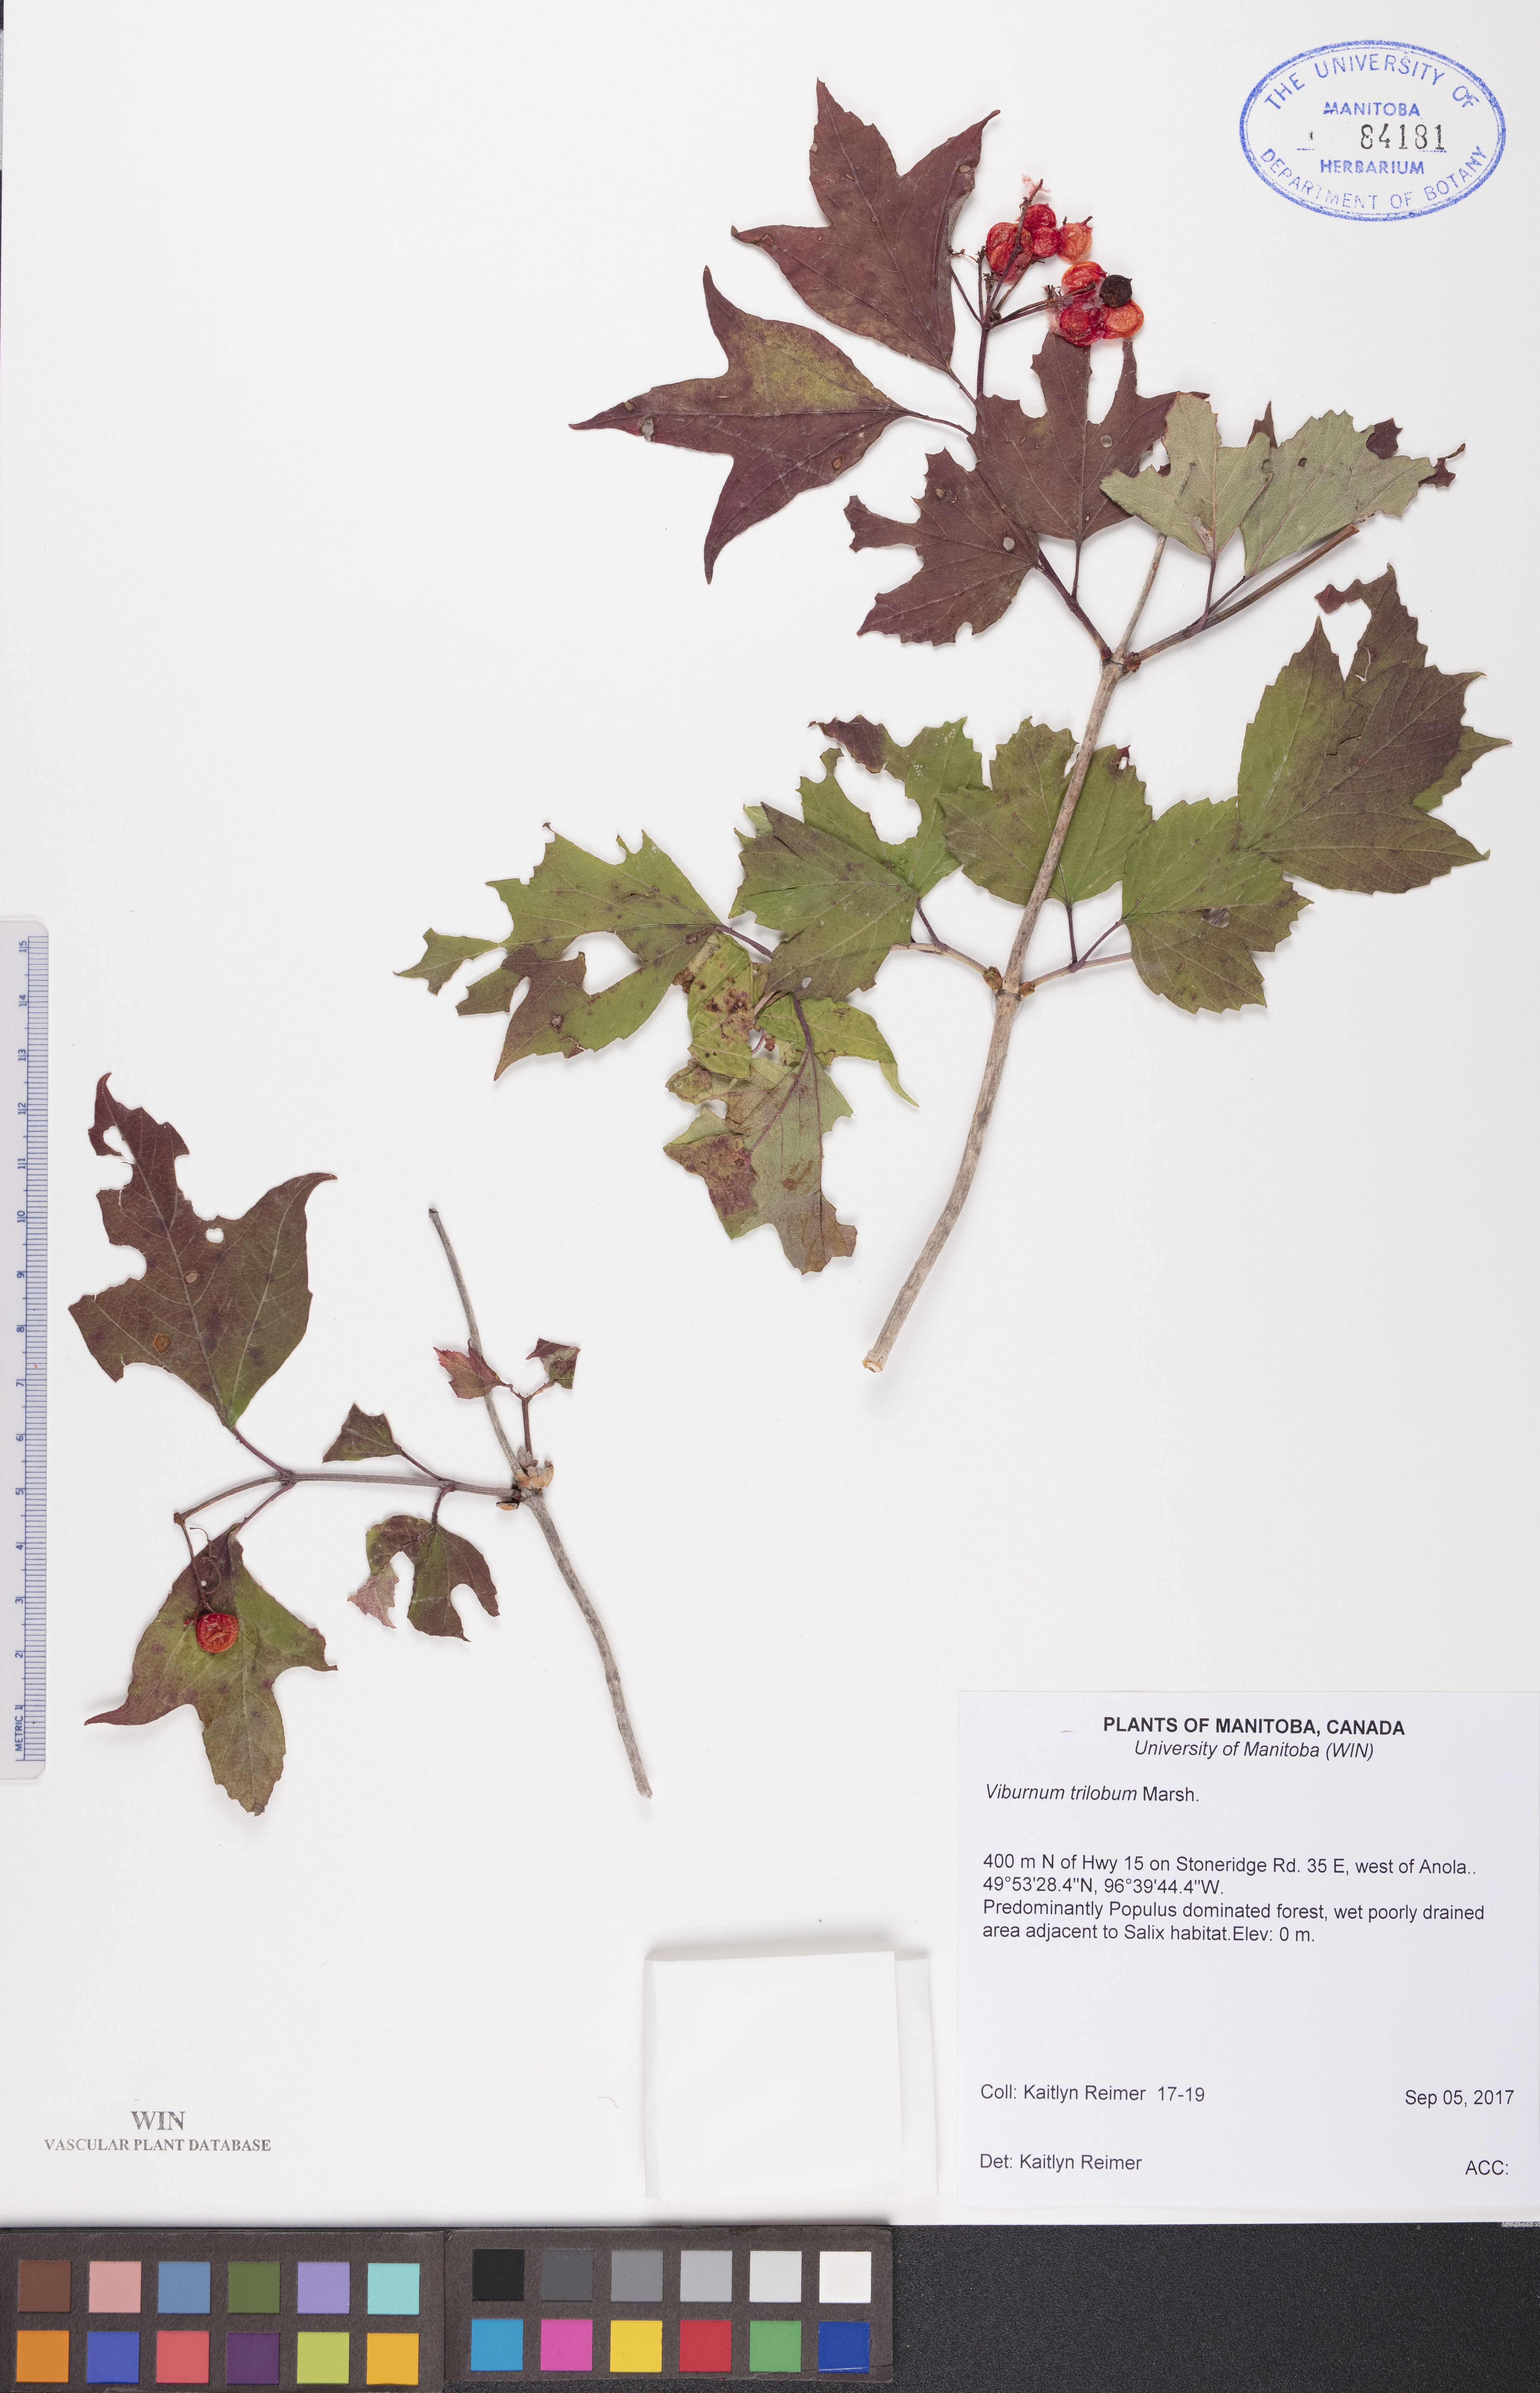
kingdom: Plantae
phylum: Tracheophyta
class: Magnoliopsida
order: Dipsacales
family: Viburnaceae
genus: Viburnum
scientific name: Viburnum trilobum
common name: American cranberrybush
